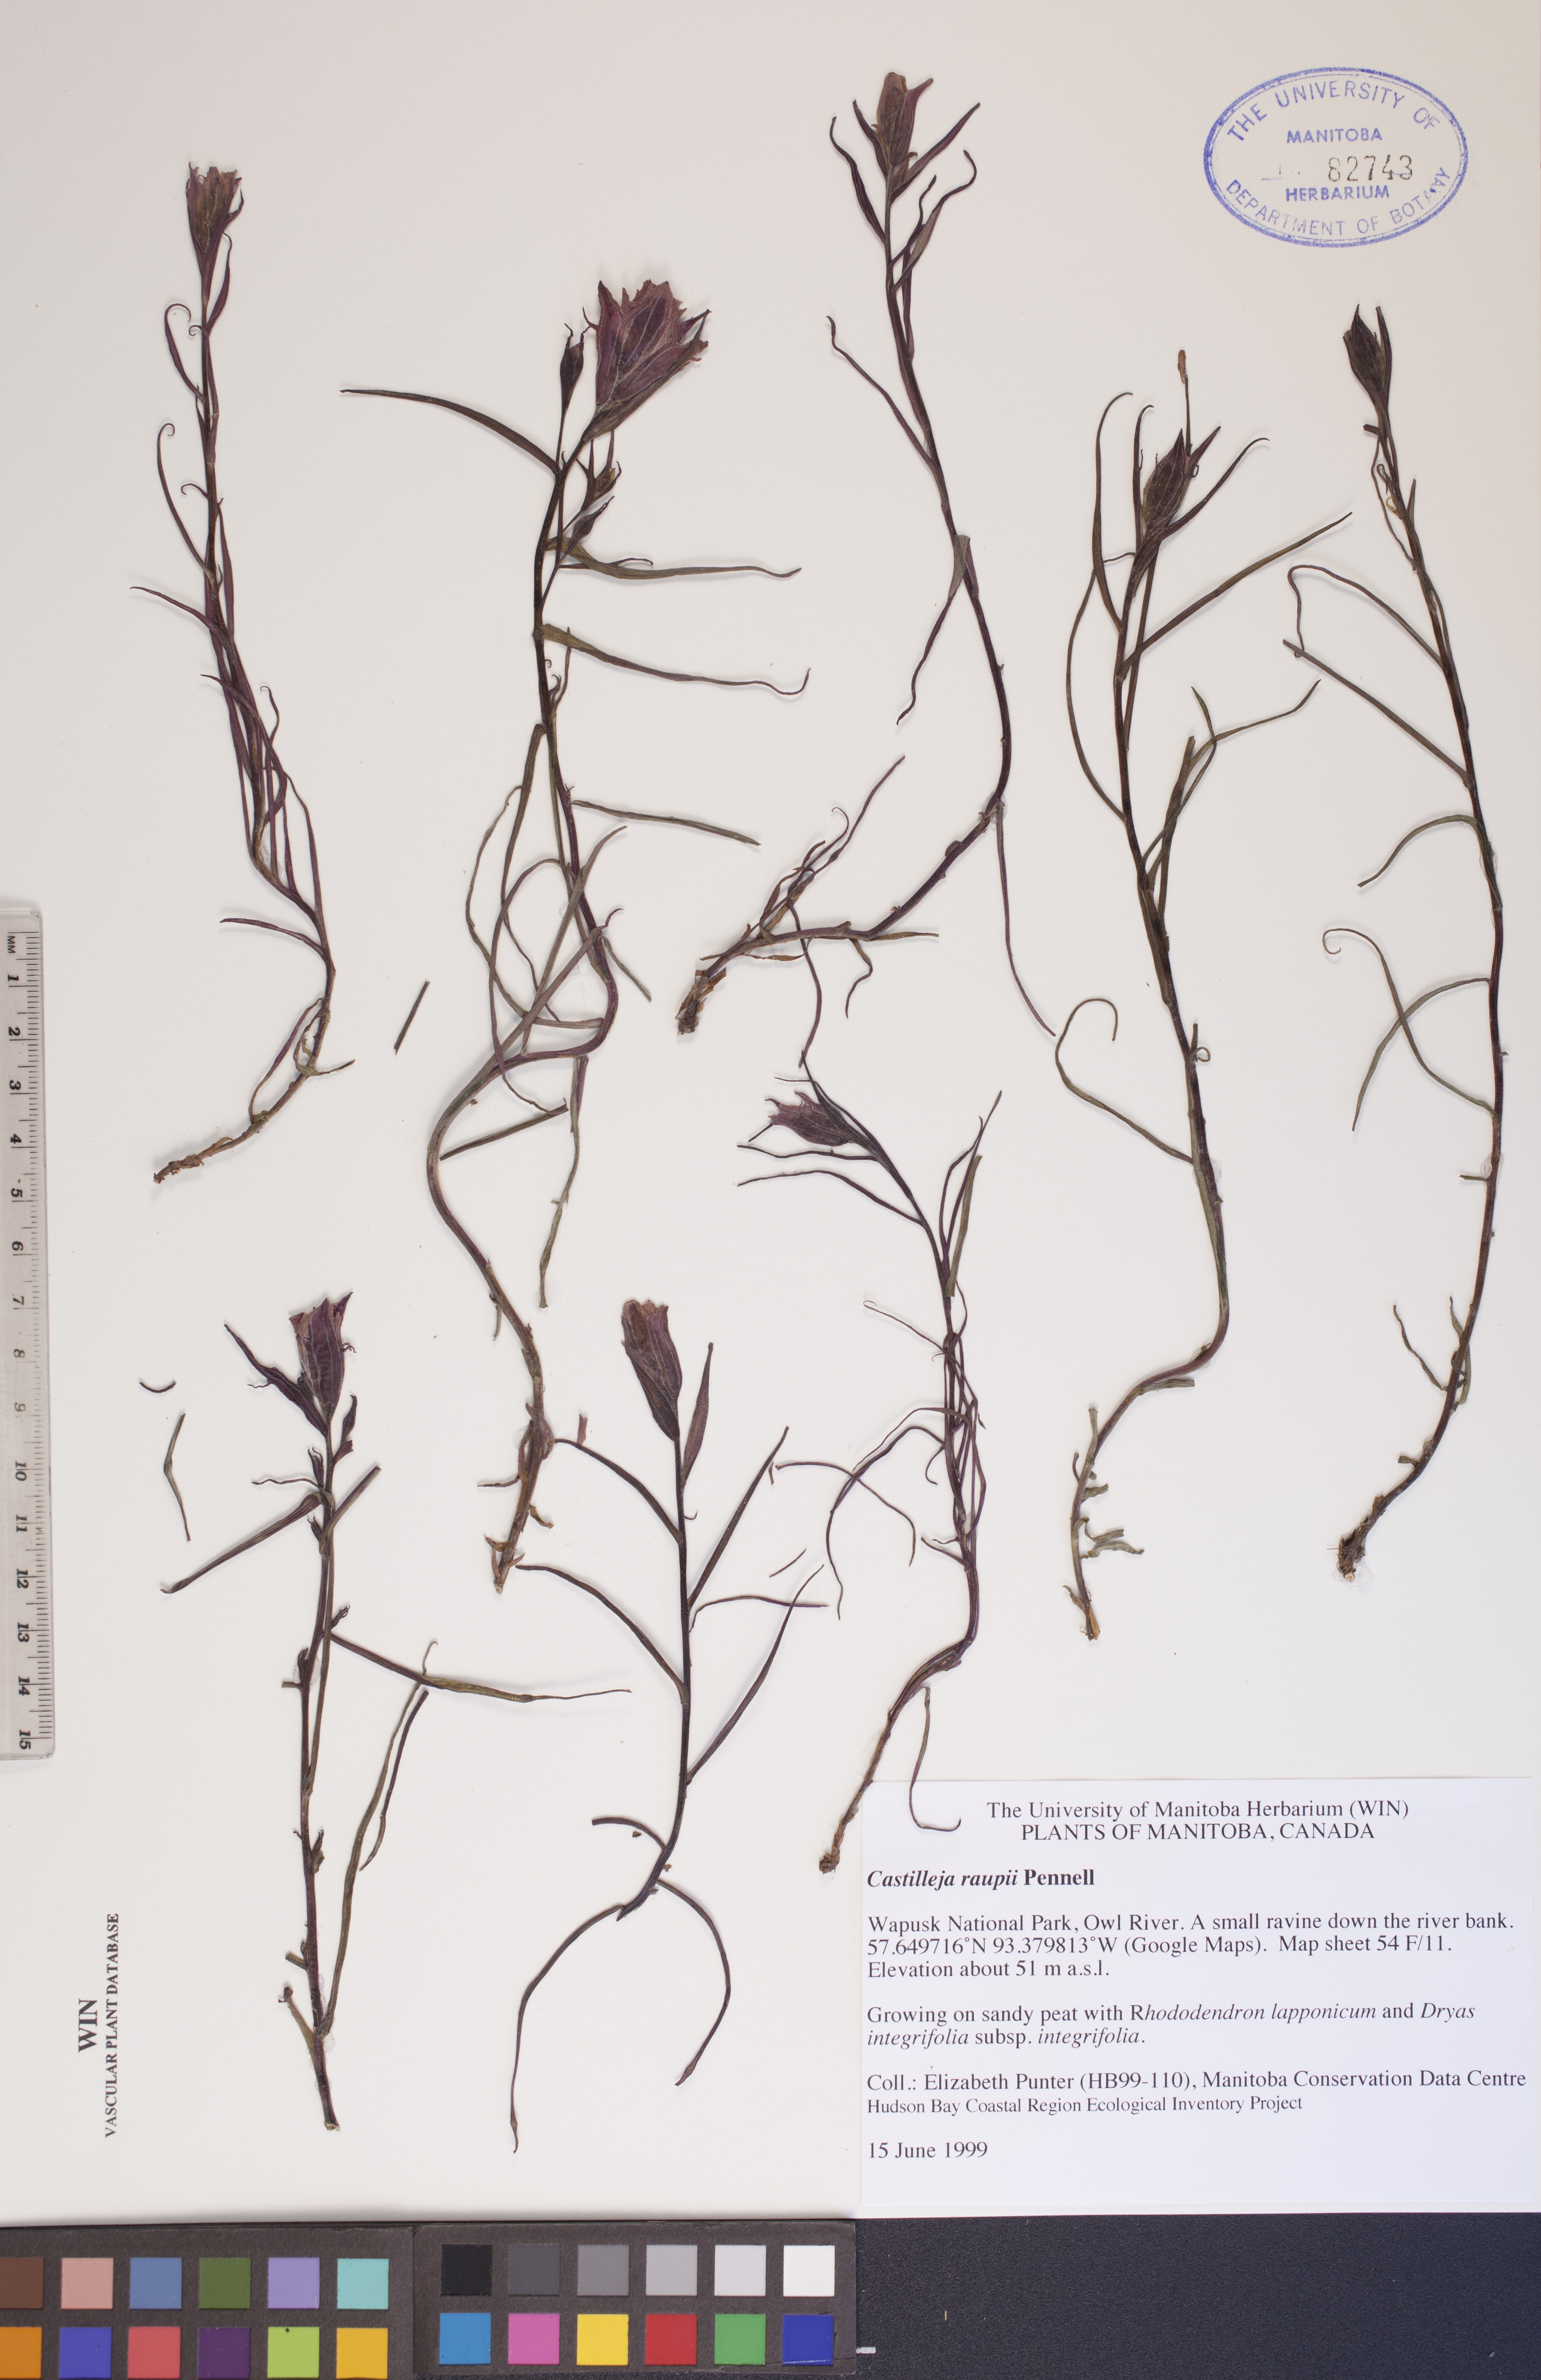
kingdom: Plantae
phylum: Tracheophyta
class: Magnoliopsida
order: Lamiales
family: Orobanchaceae
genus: Castilleja
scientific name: Castilleja raupii
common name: Raup's paintbrush
